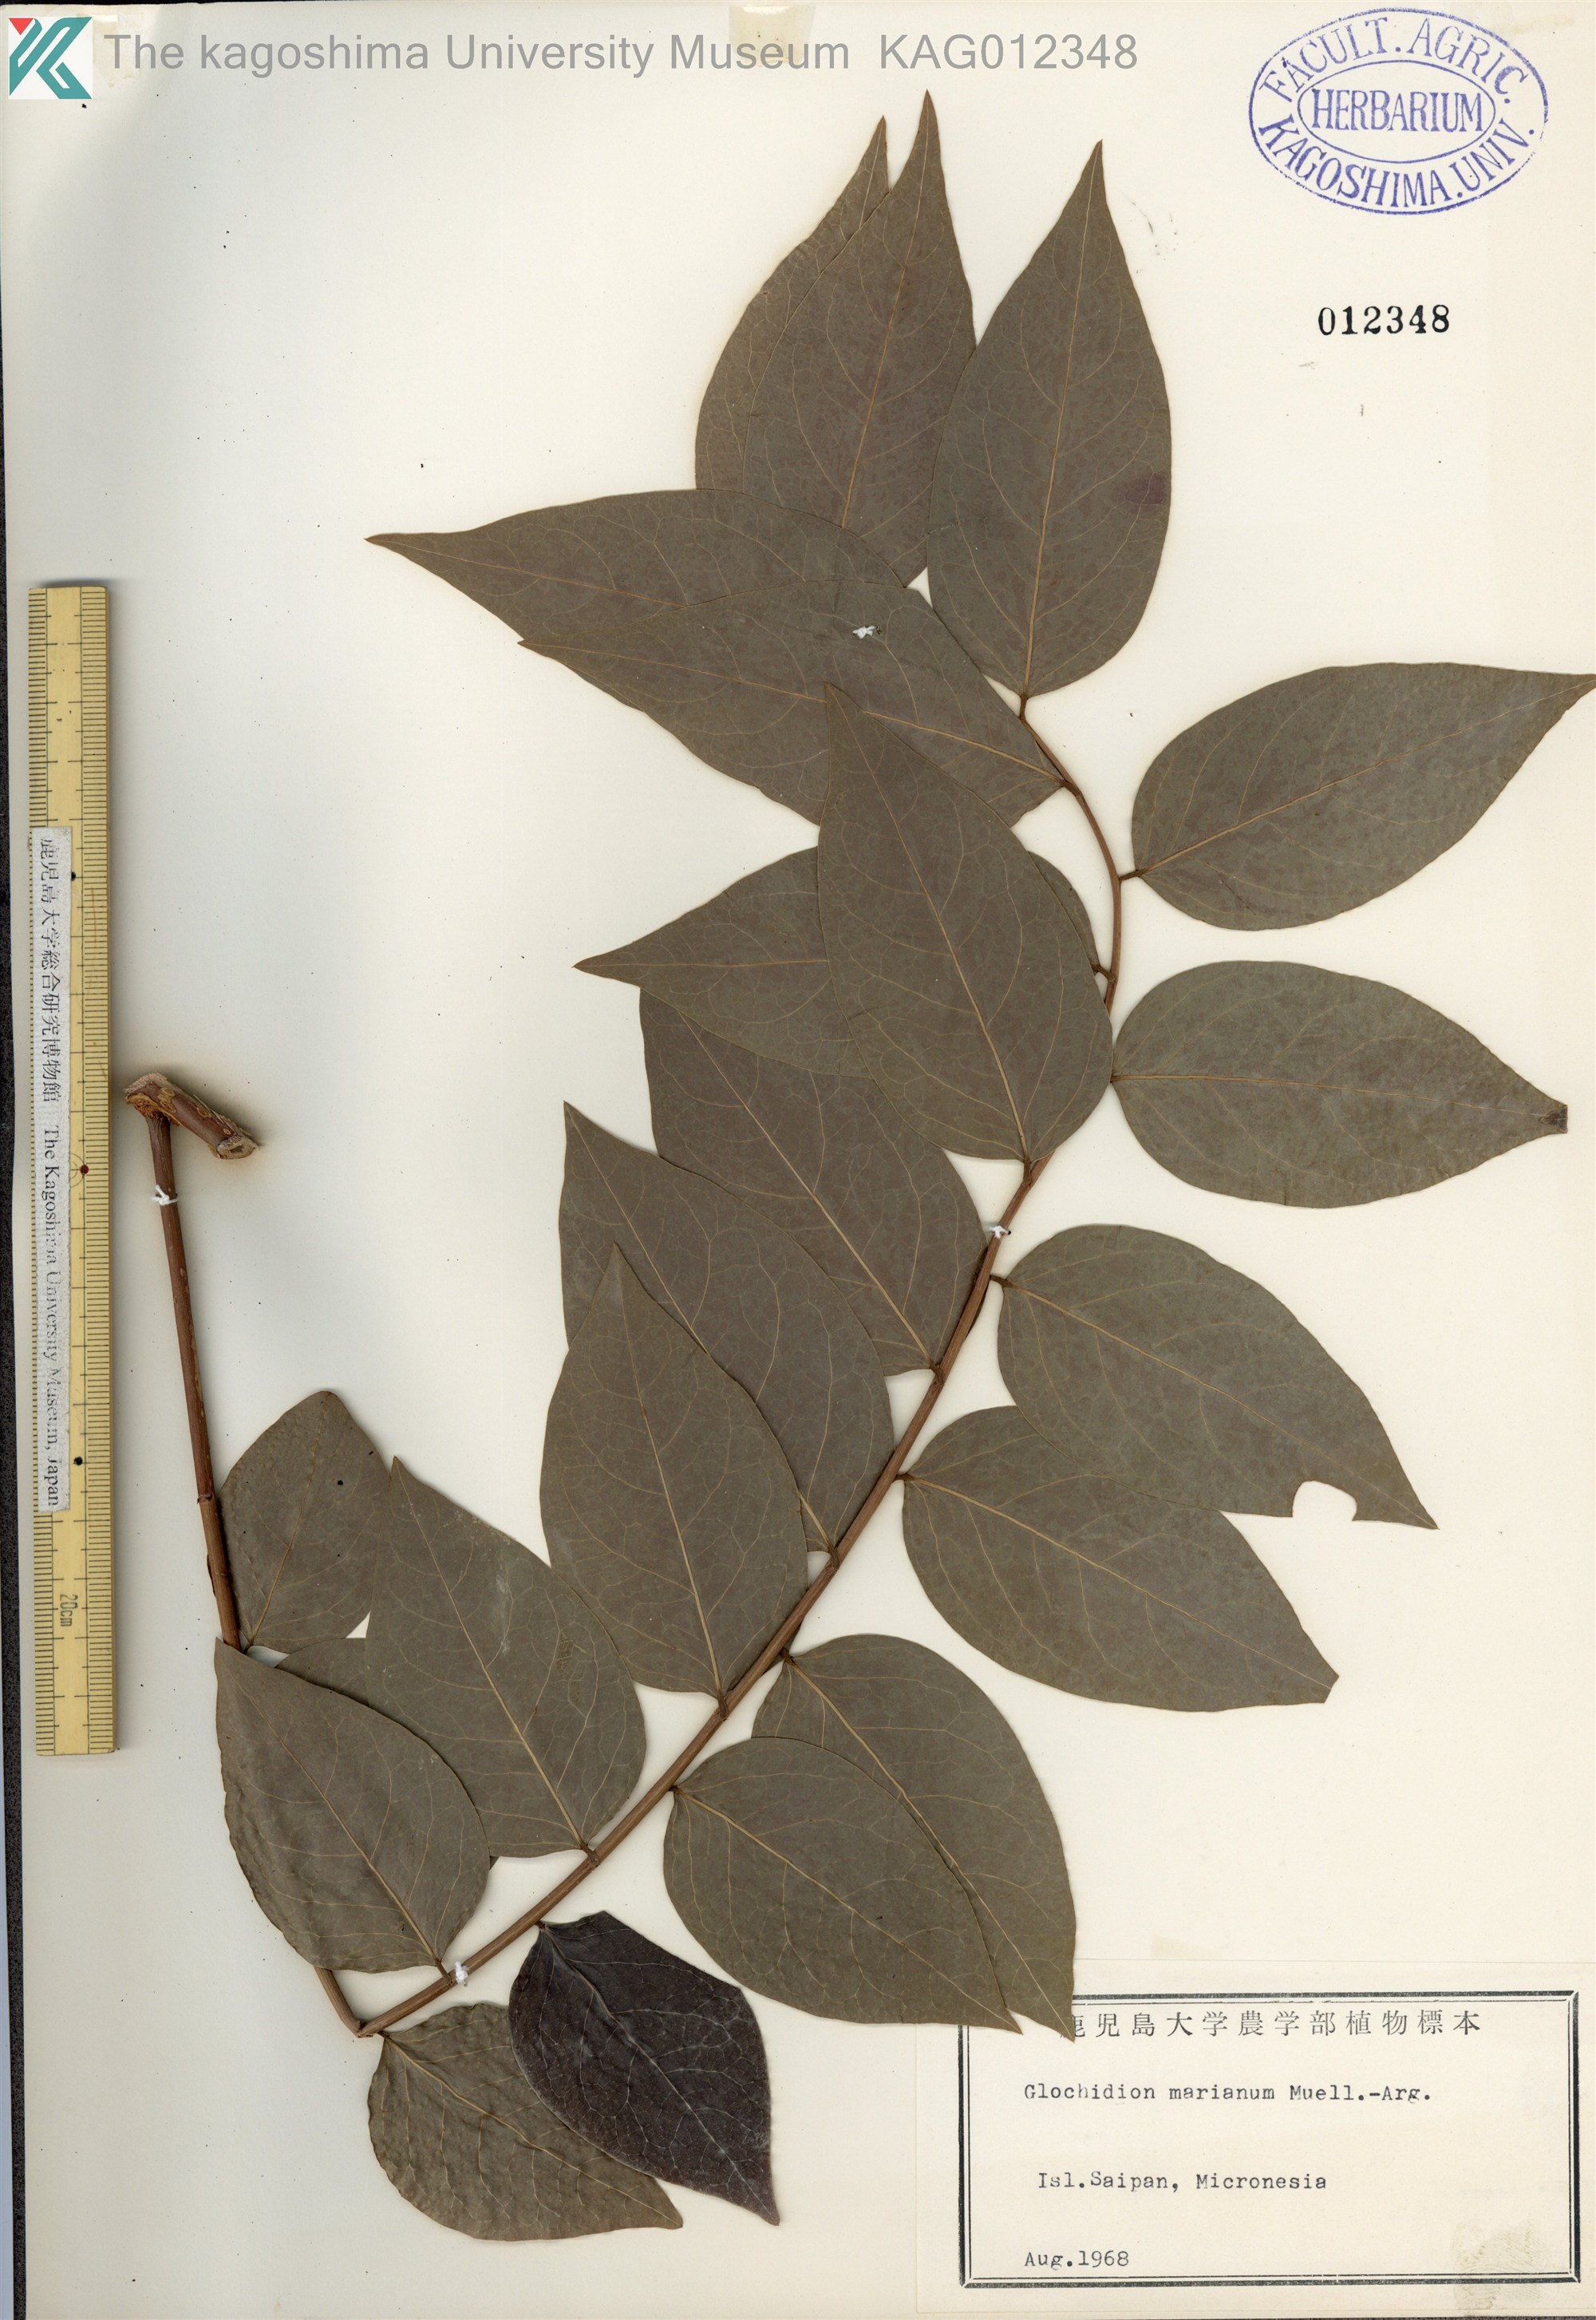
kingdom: Plantae
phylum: Tracheophyta
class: Magnoliopsida
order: Malpighiales
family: Phyllanthaceae
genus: Glochidion
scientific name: Glochidion marianum
